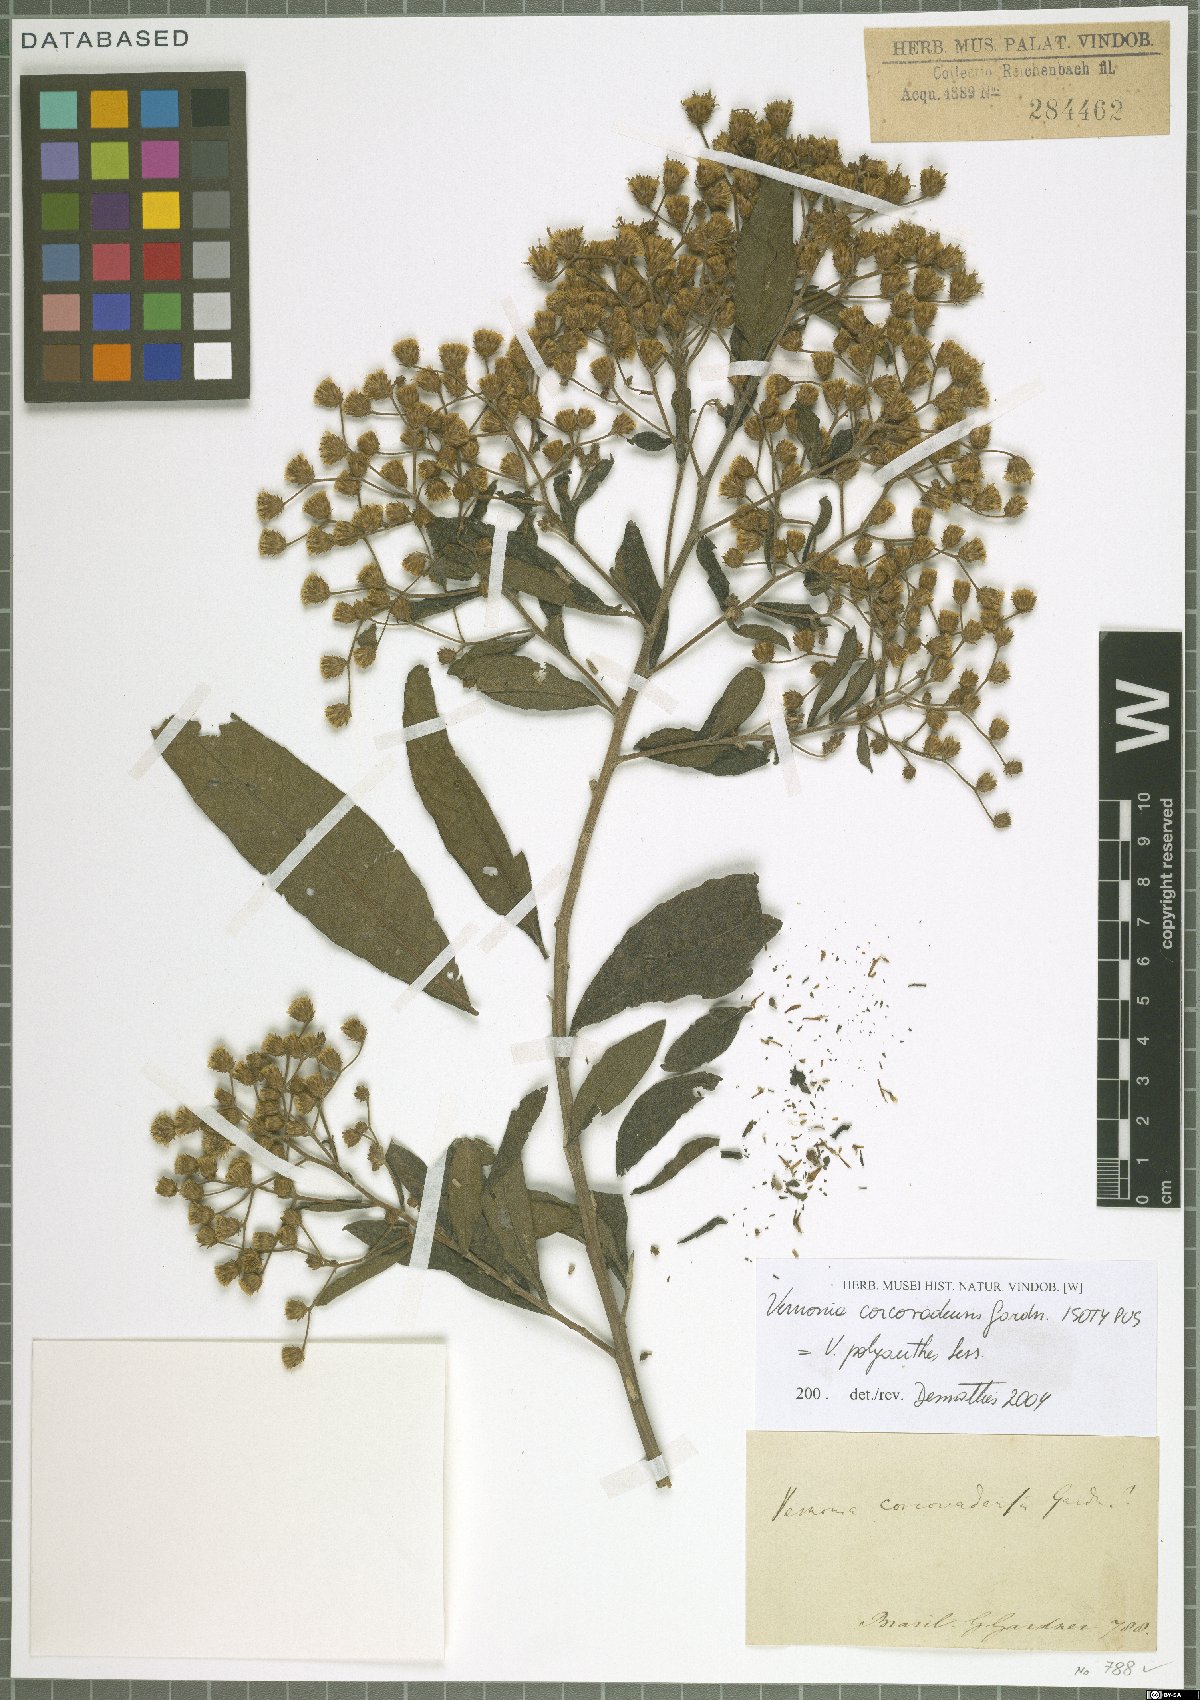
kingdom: Plantae
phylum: Tracheophyta
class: Magnoliopsida
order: Asterales
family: Asteraceae
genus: Vernonanthura
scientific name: Vernonanthura polyanthes
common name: Tree aster
